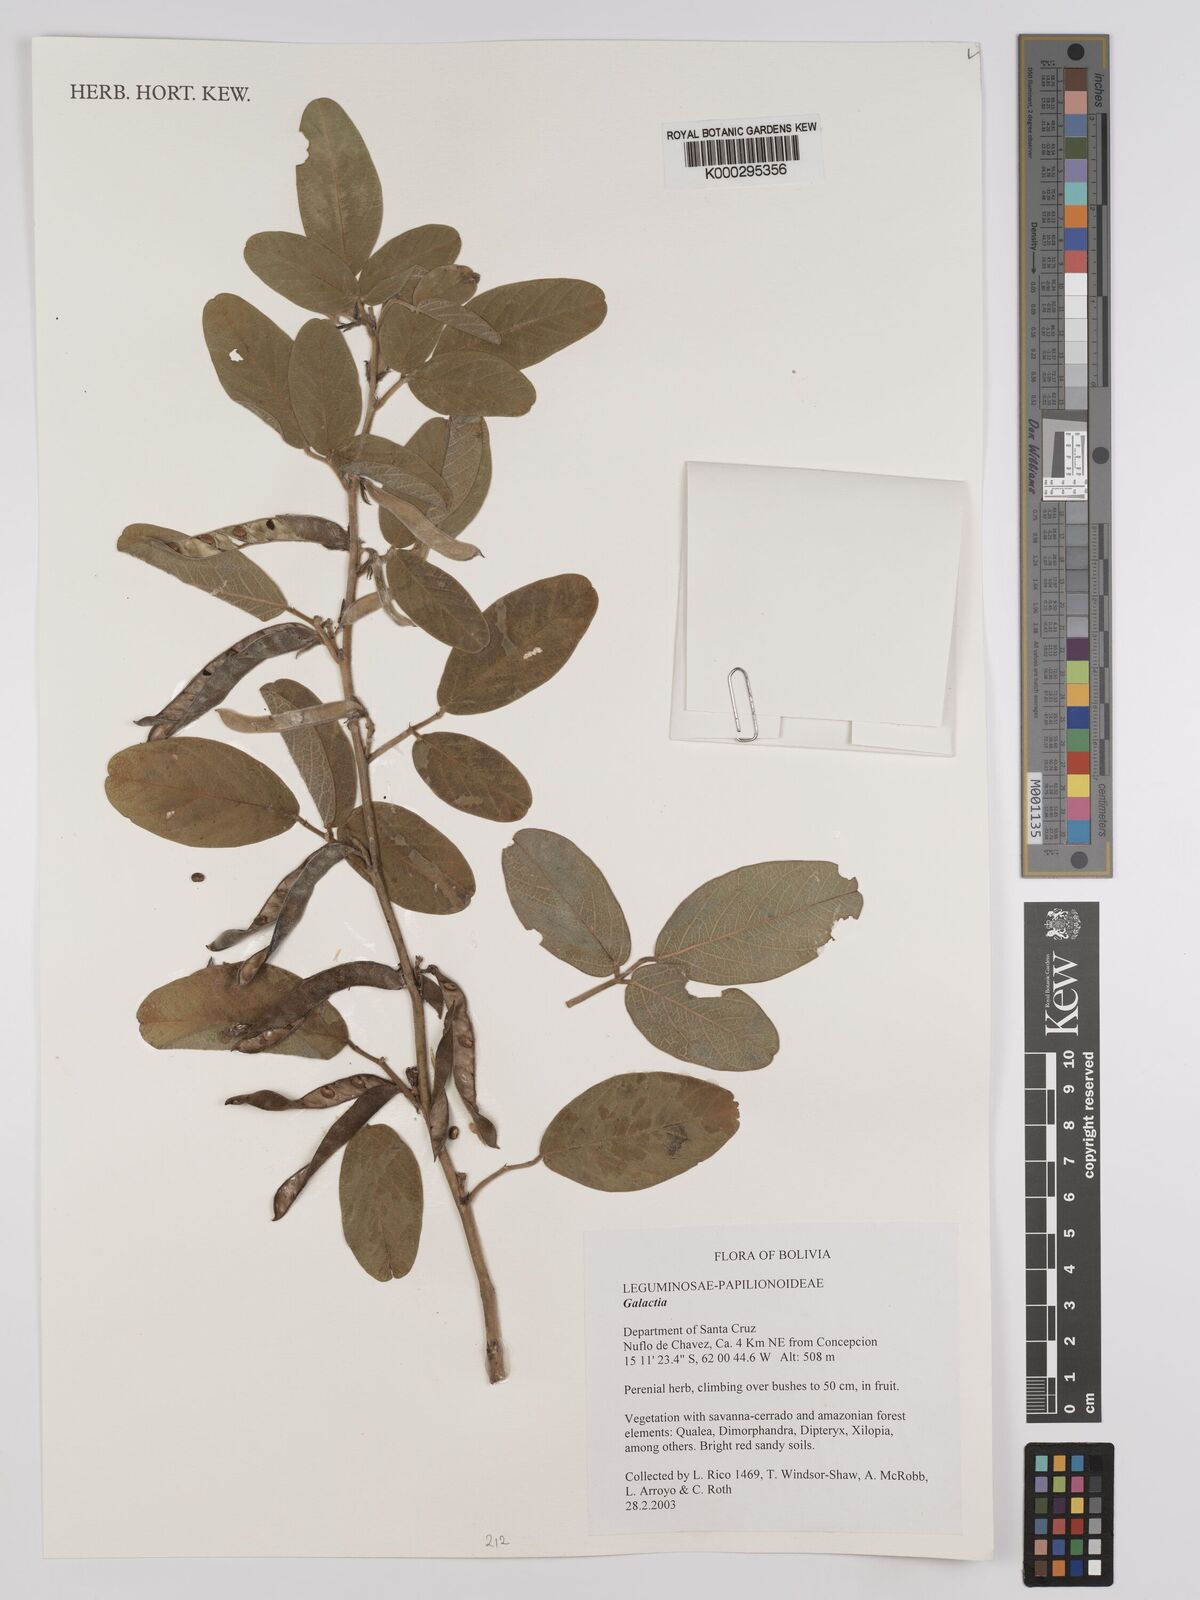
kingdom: Plantae
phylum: Tracheophyta
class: Magnoliopsida
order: Fabales
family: Fabaceae
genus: Galactia
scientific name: Galactia
